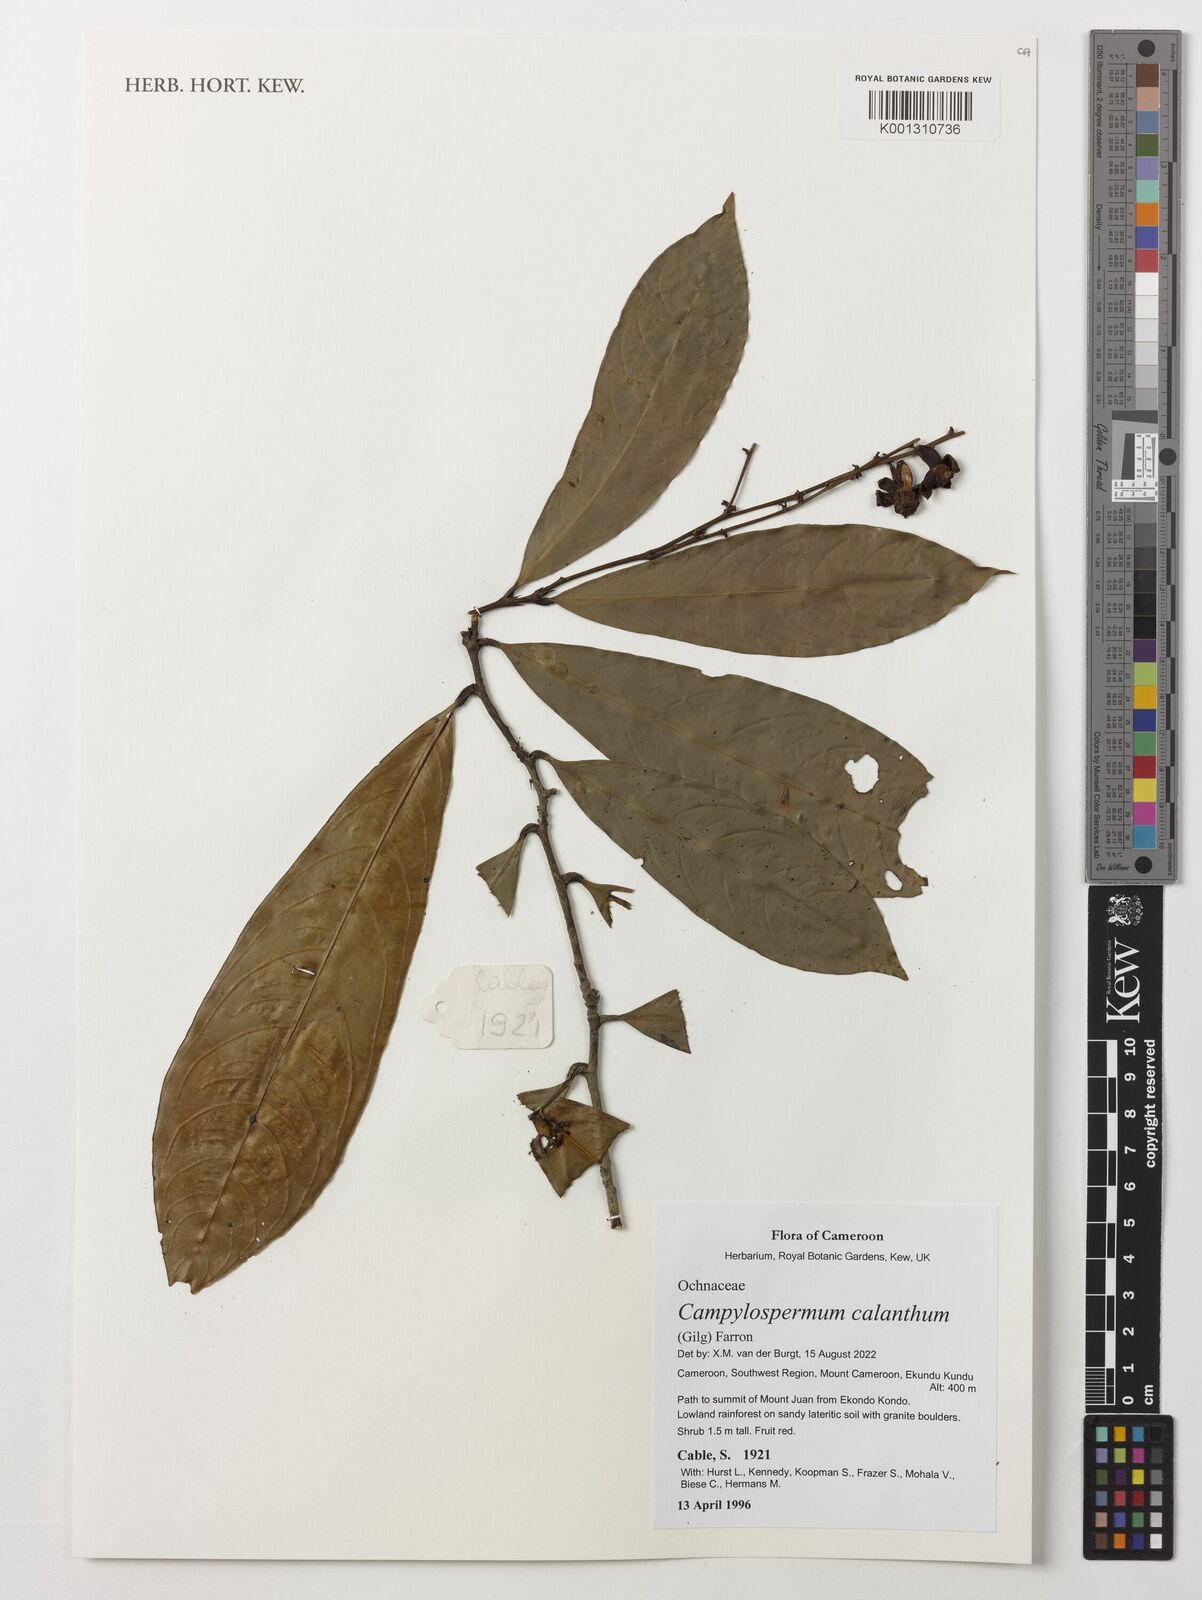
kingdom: Plantae
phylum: Tracheophyta
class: Magnoliopsida
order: Malpighiales
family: Ochnaceae
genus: Campylospermum
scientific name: Campylospermum calanthum
